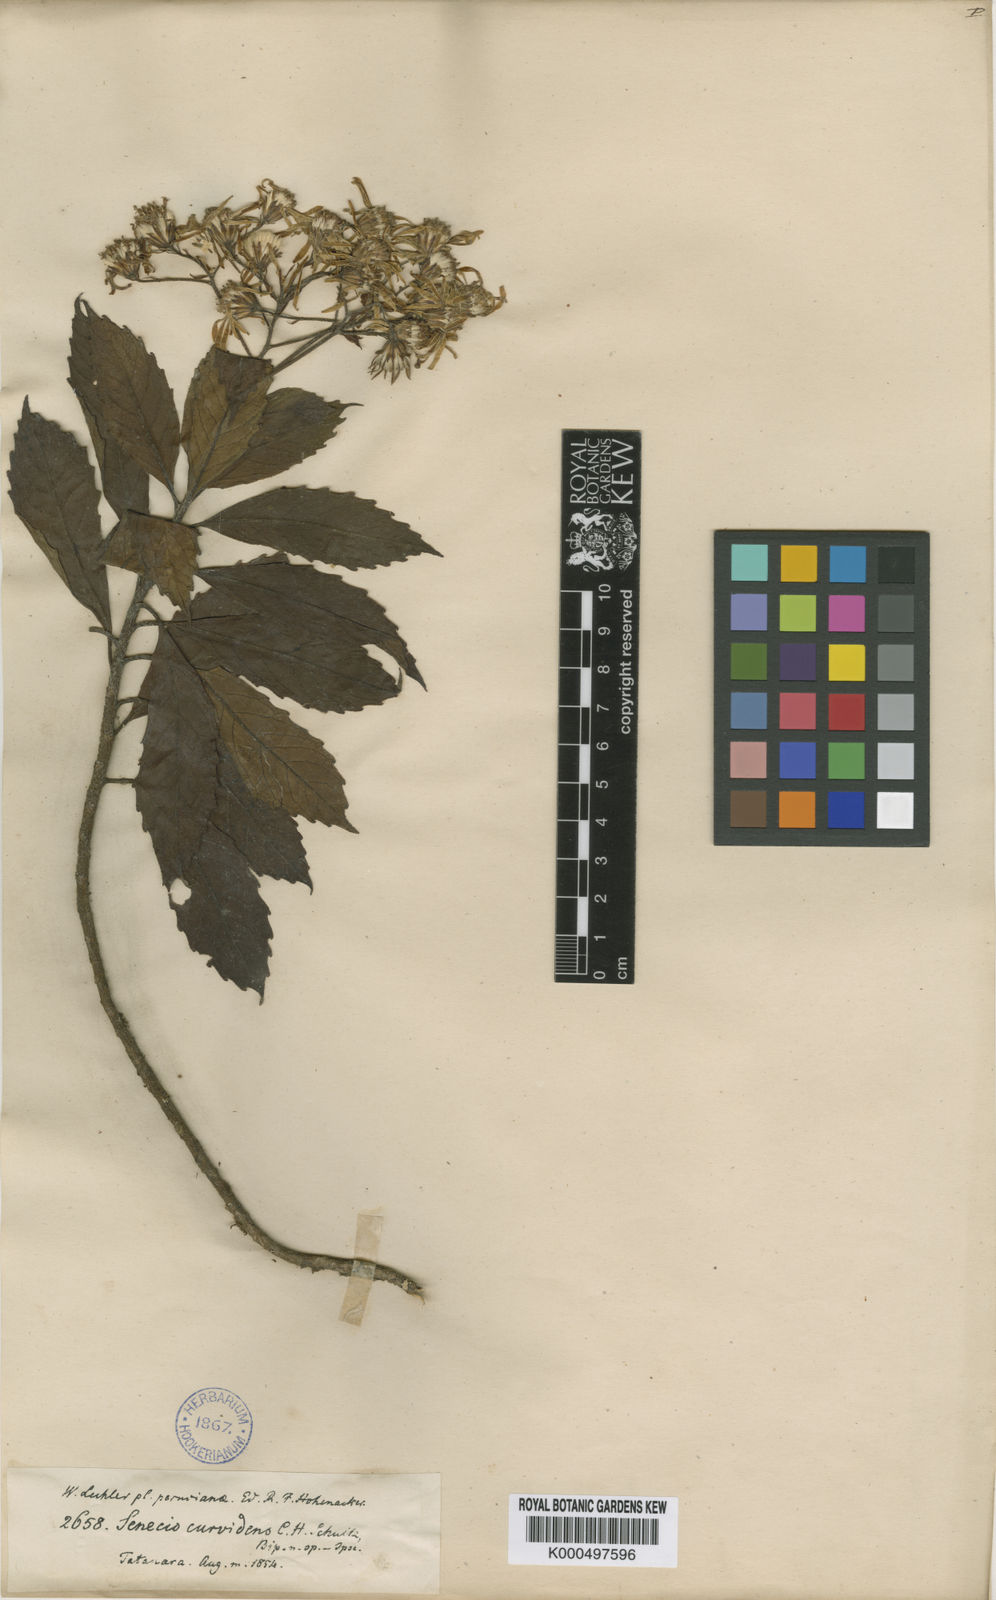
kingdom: Plantae
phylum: Tracheophyta
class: Magnoliopsida
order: Asterales
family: Asteraceae
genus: Dendrophorbium
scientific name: Dendrophorbium curvidens
